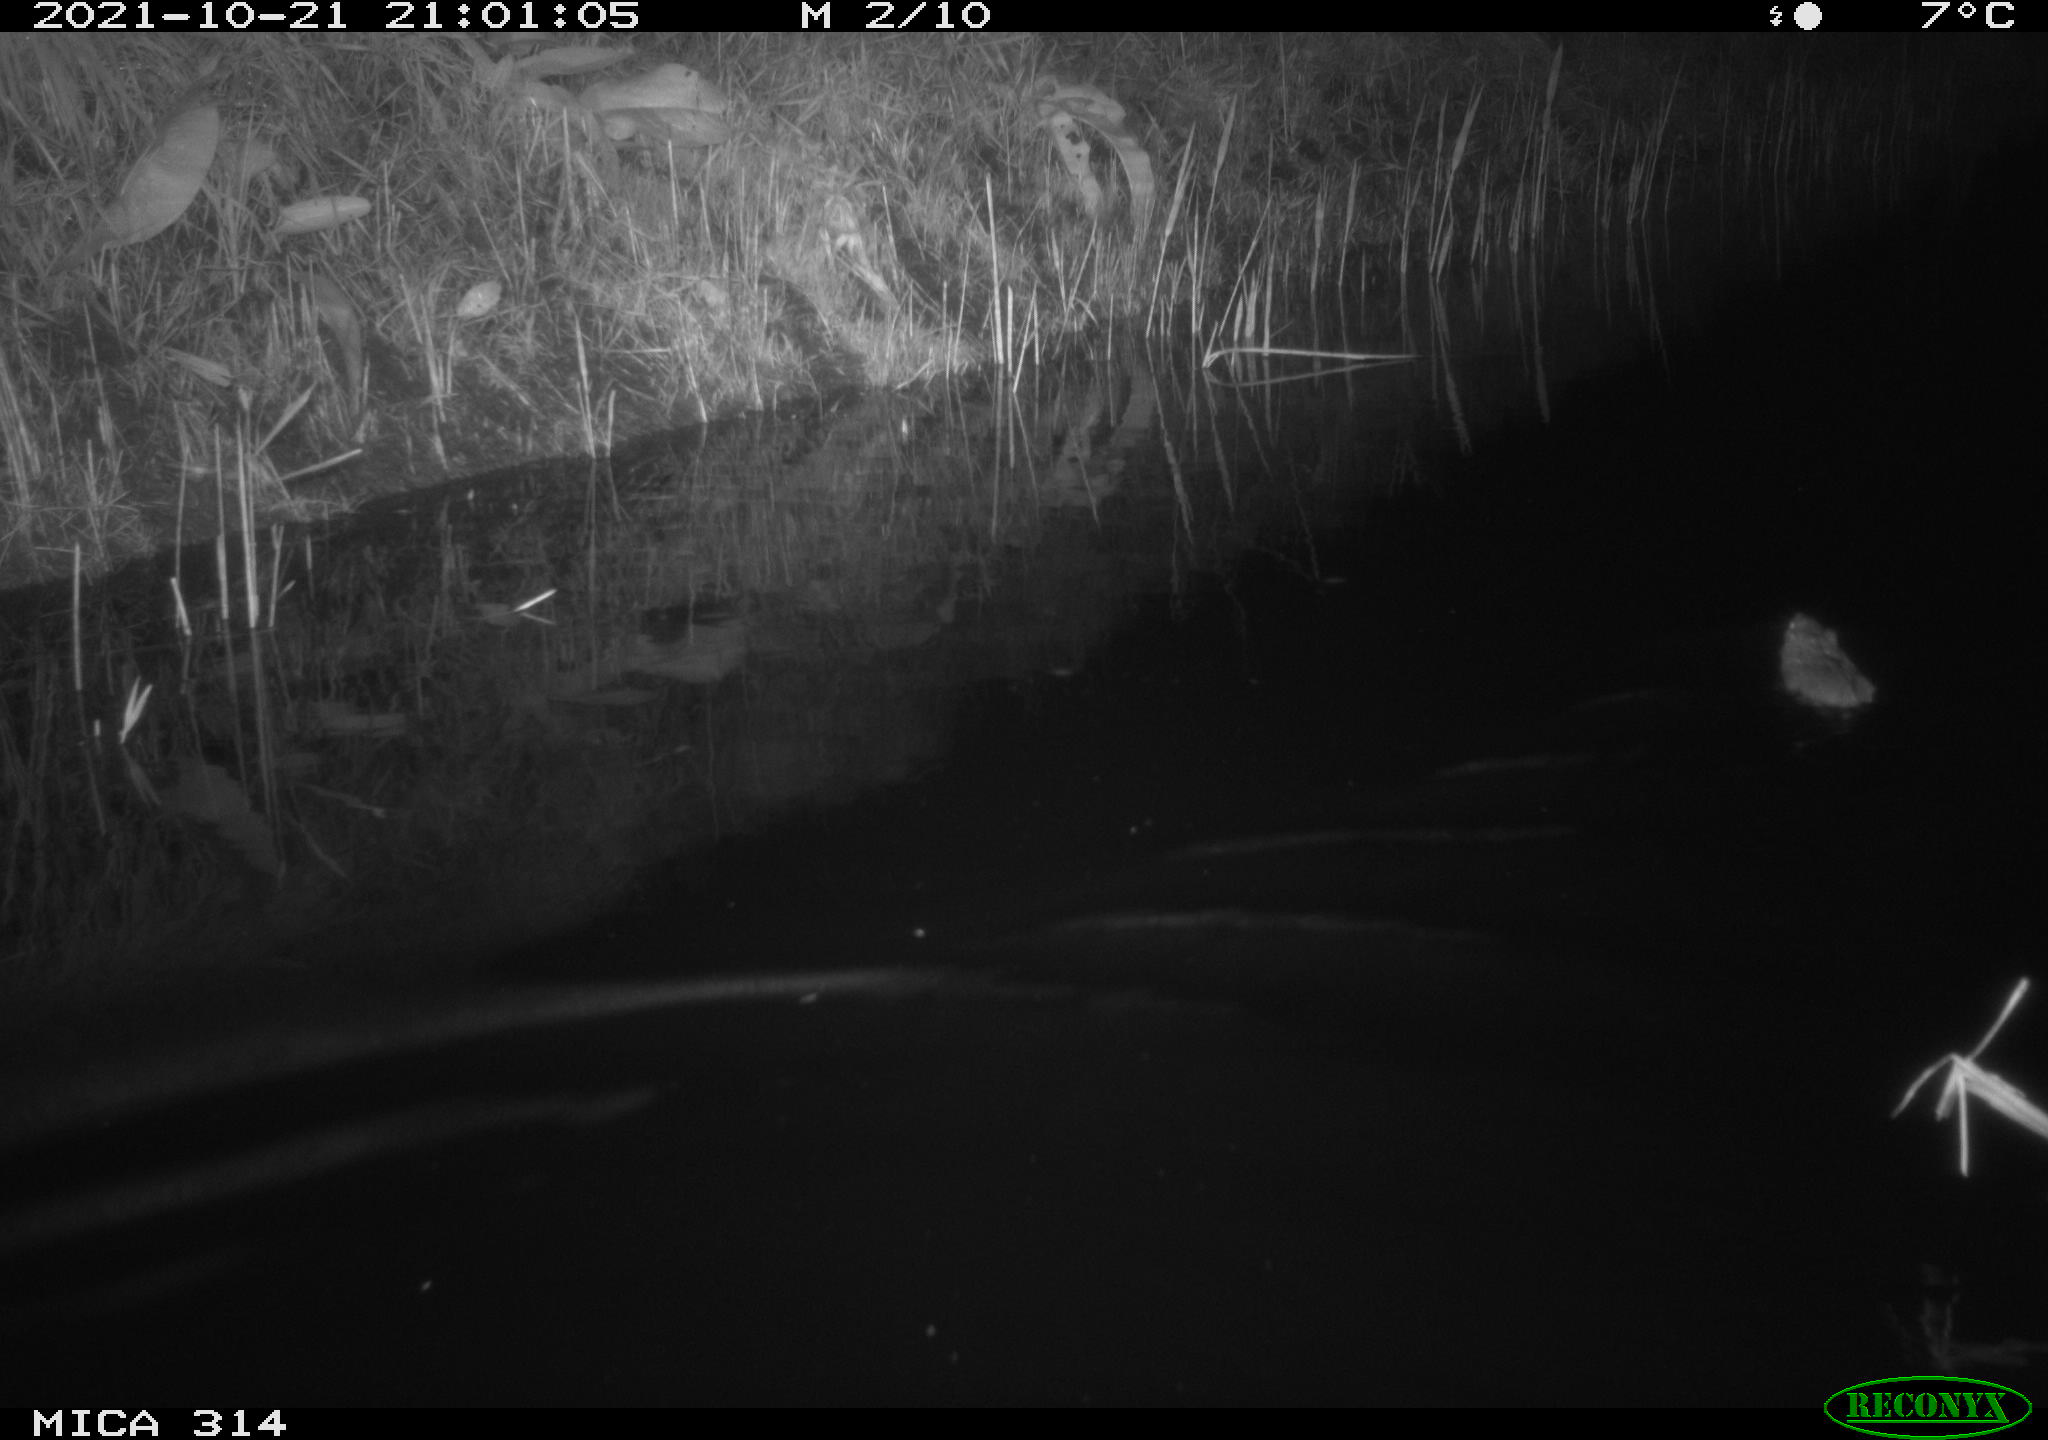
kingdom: Animalia
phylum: Chordata
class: Mammalia
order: Rodentia
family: Cricetidae
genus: Ondatra
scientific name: Ondatra zibethicus
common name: Muskrat
